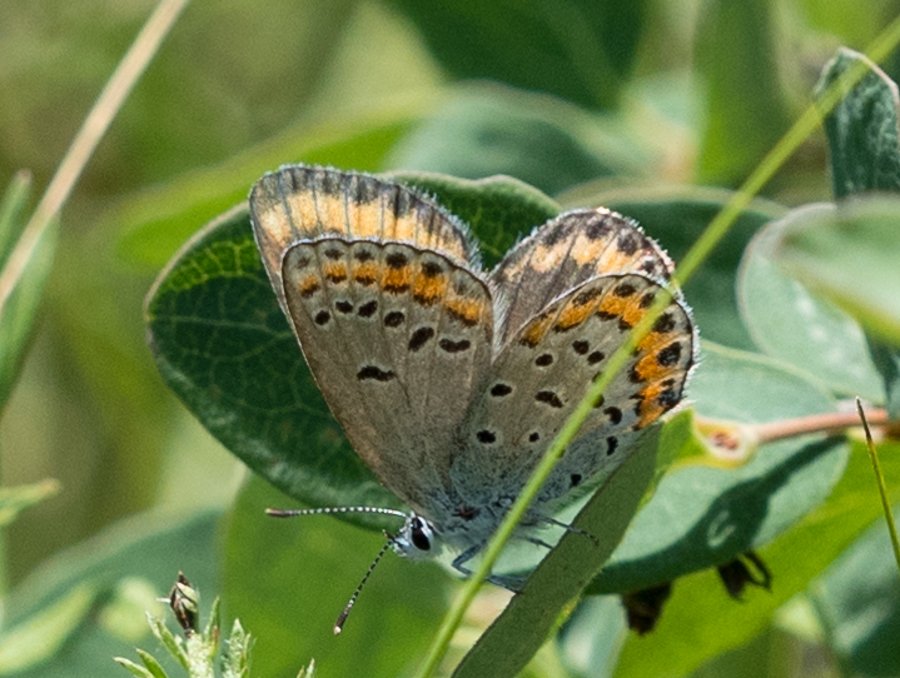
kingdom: Animalia
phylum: Arthropoda
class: Insecta
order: Lepidoptera
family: Lycaenidae
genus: Lycaeides
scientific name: Lycaeides melissa
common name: Melissa Blue
